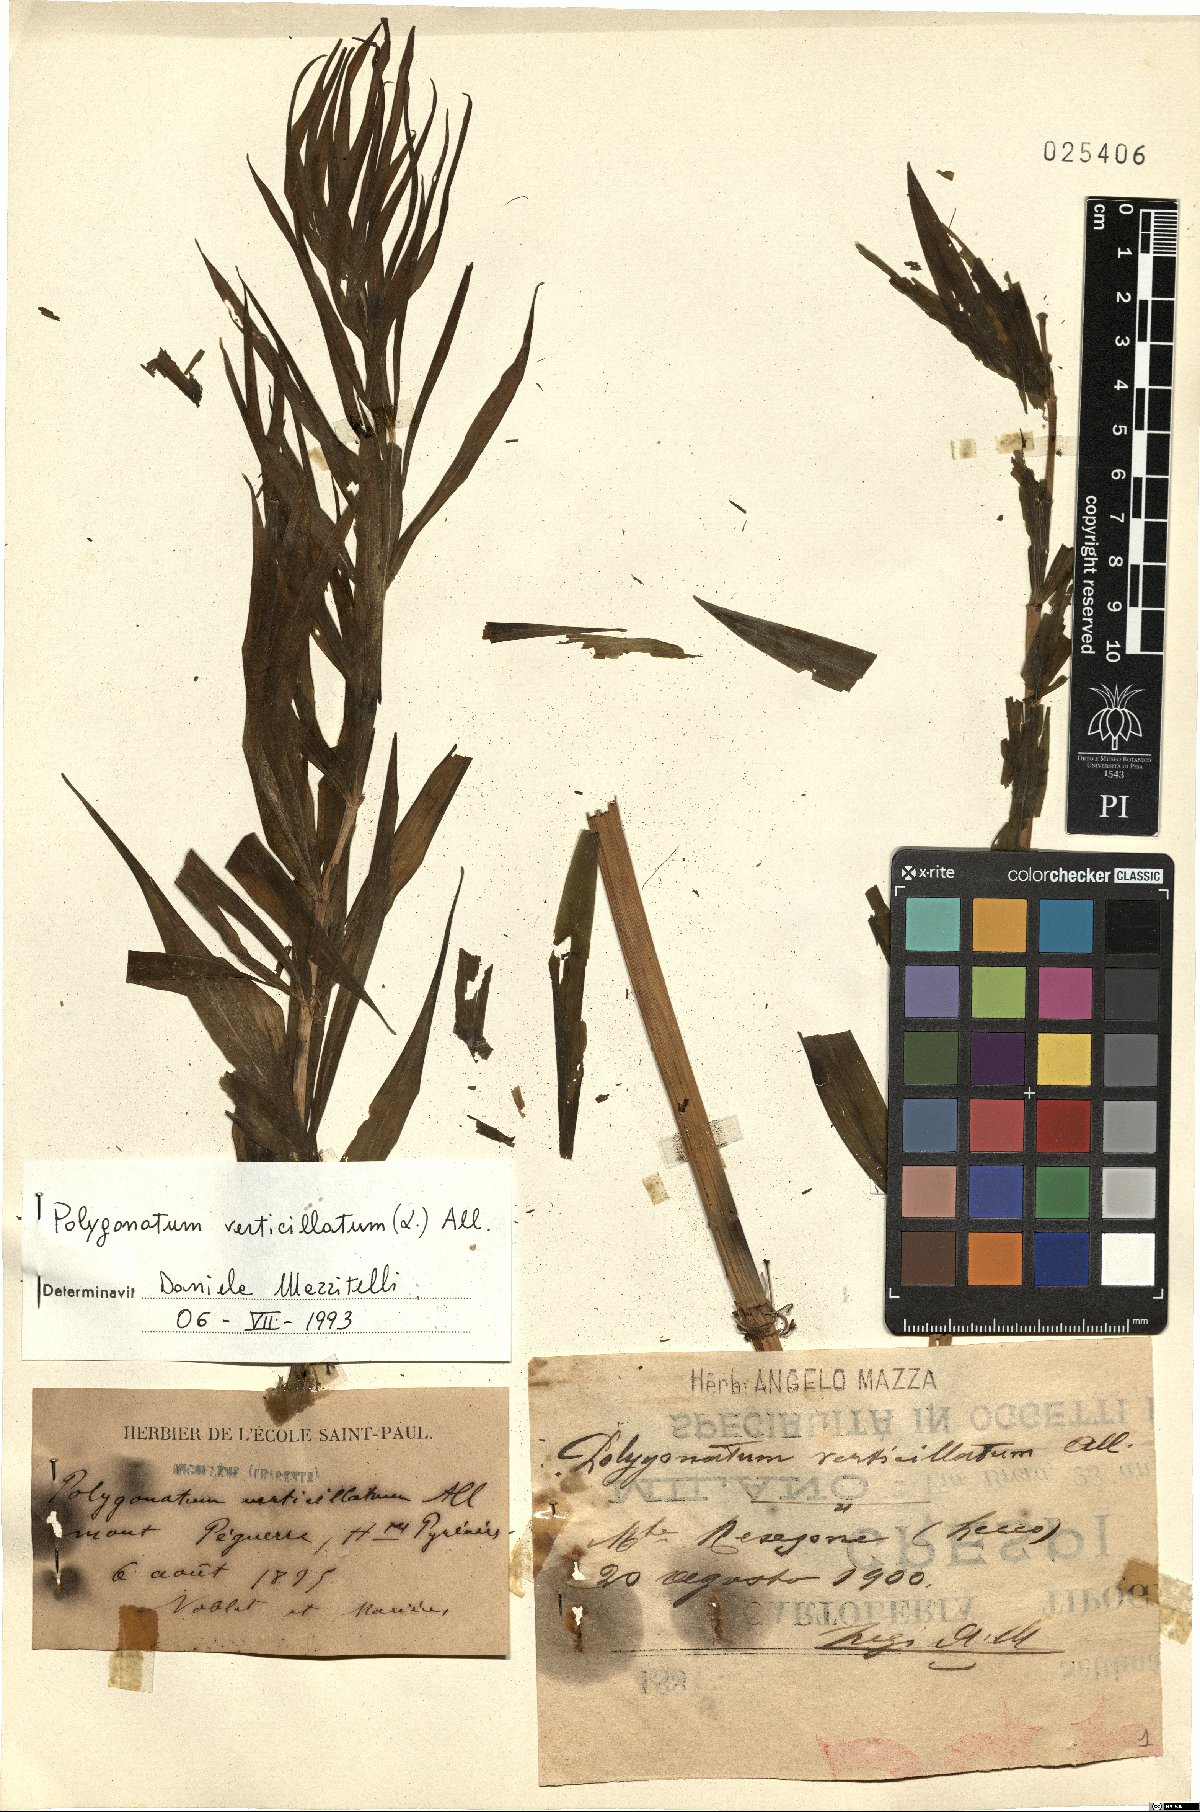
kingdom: Plantae
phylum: Tracheophyta
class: Liliopsida
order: Asparagales
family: Asparagaceae
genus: Polygonatum
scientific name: Polygonatum verticillatum
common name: Whorled solomon's-seal
